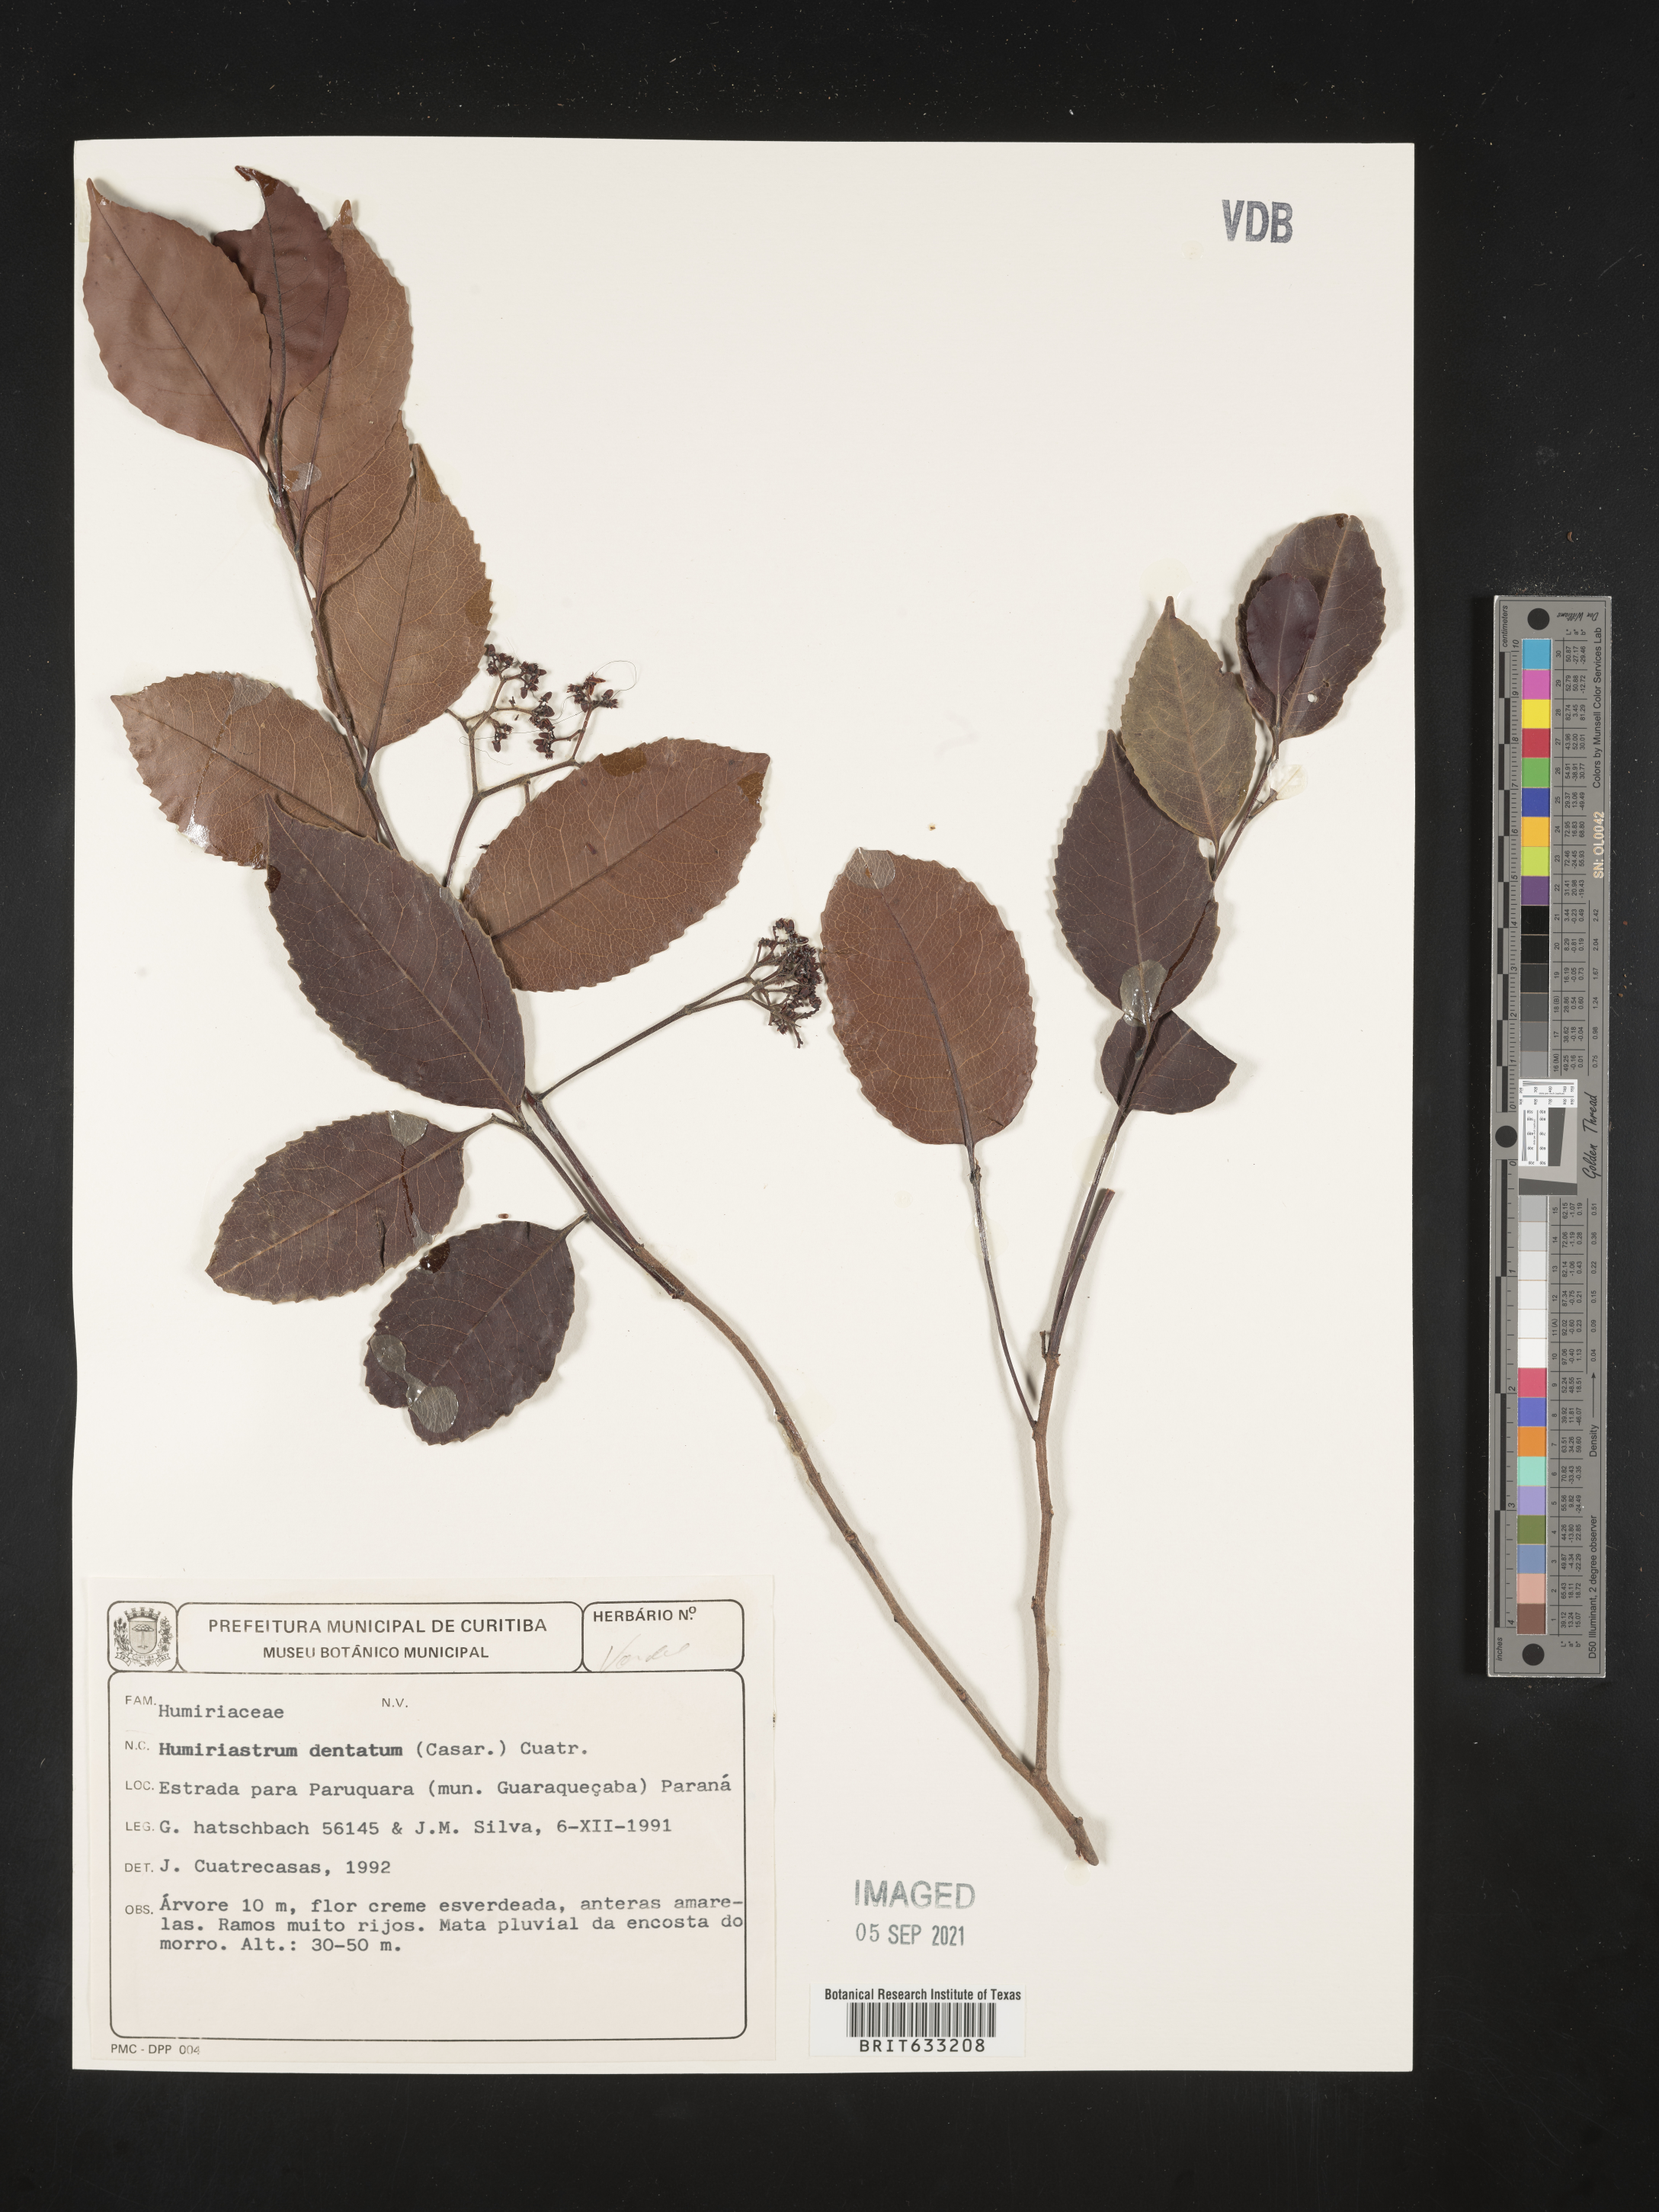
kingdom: Plantae
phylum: Tracheophyta
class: Magnoliopsida
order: Malpighiales
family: Humiriaceae
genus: Humiriastrum
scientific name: Humiriastrum
